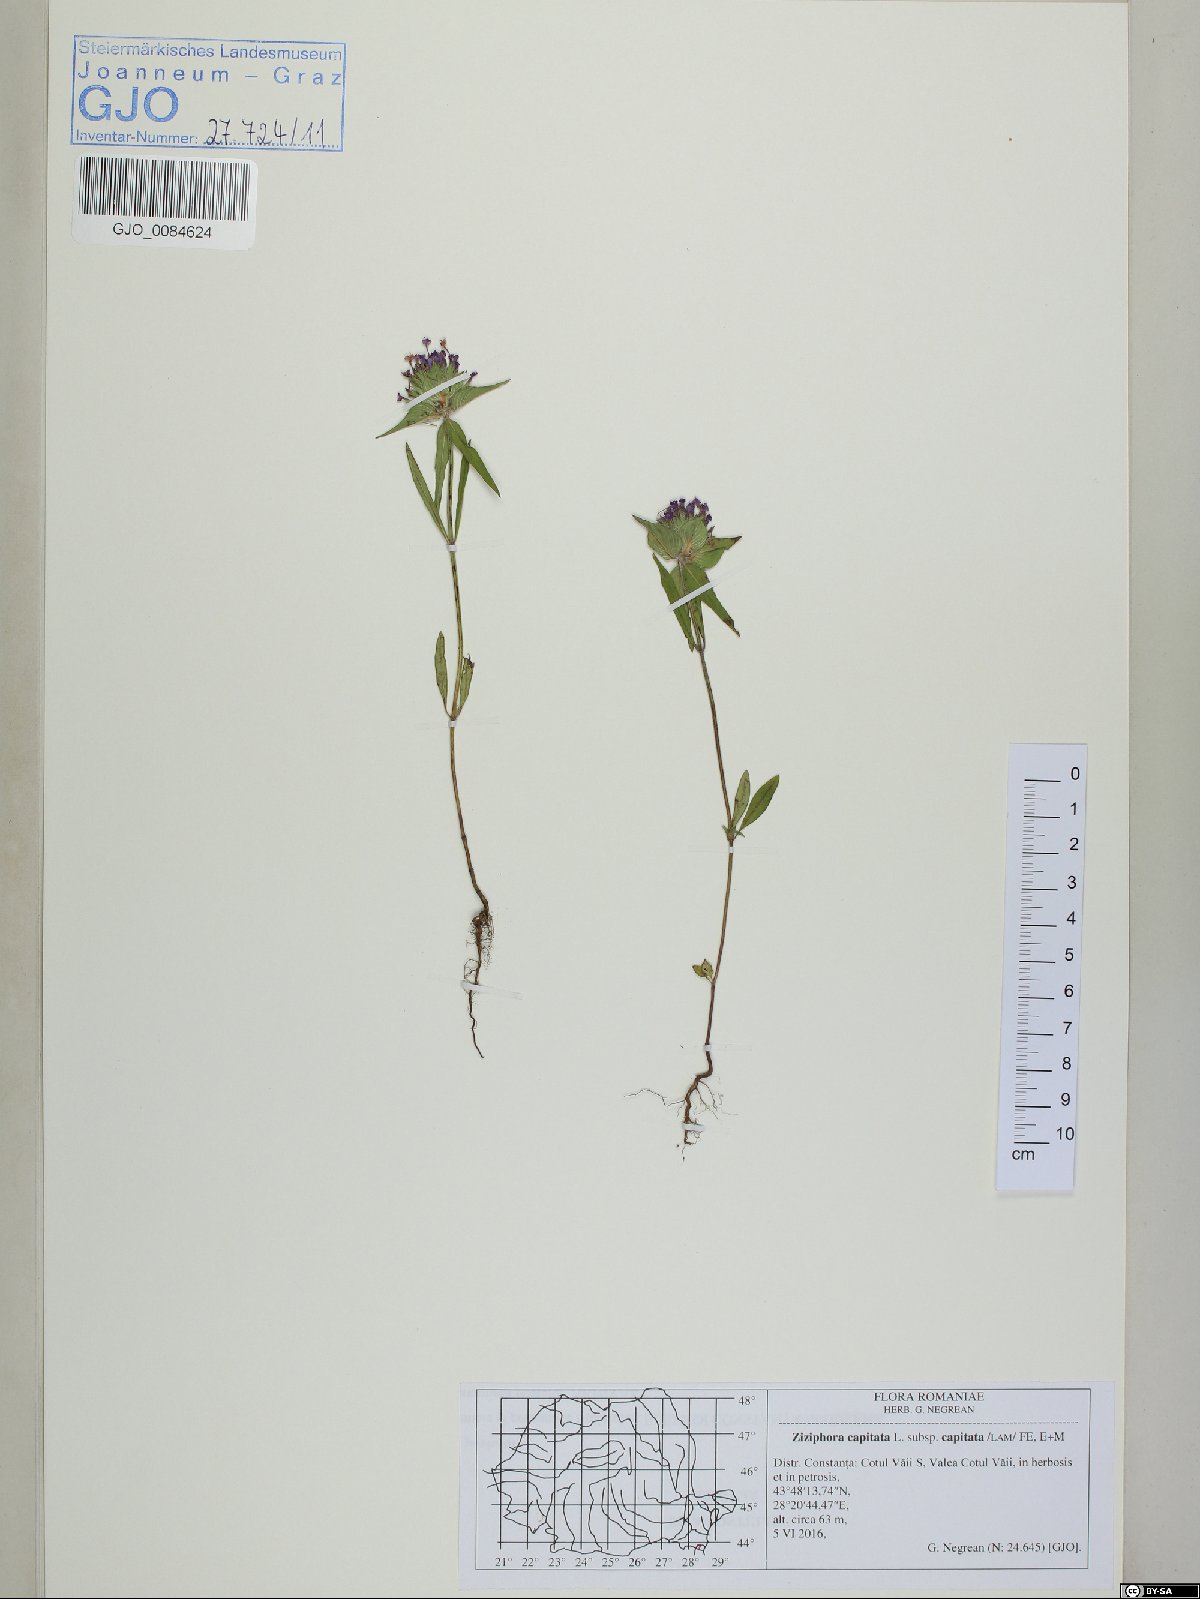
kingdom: Plantae
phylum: Tracheophyta
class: Magnoliopsida
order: Lamiales
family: Lamiaceae
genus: Ziziphora
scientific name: Ziziphora capitata
